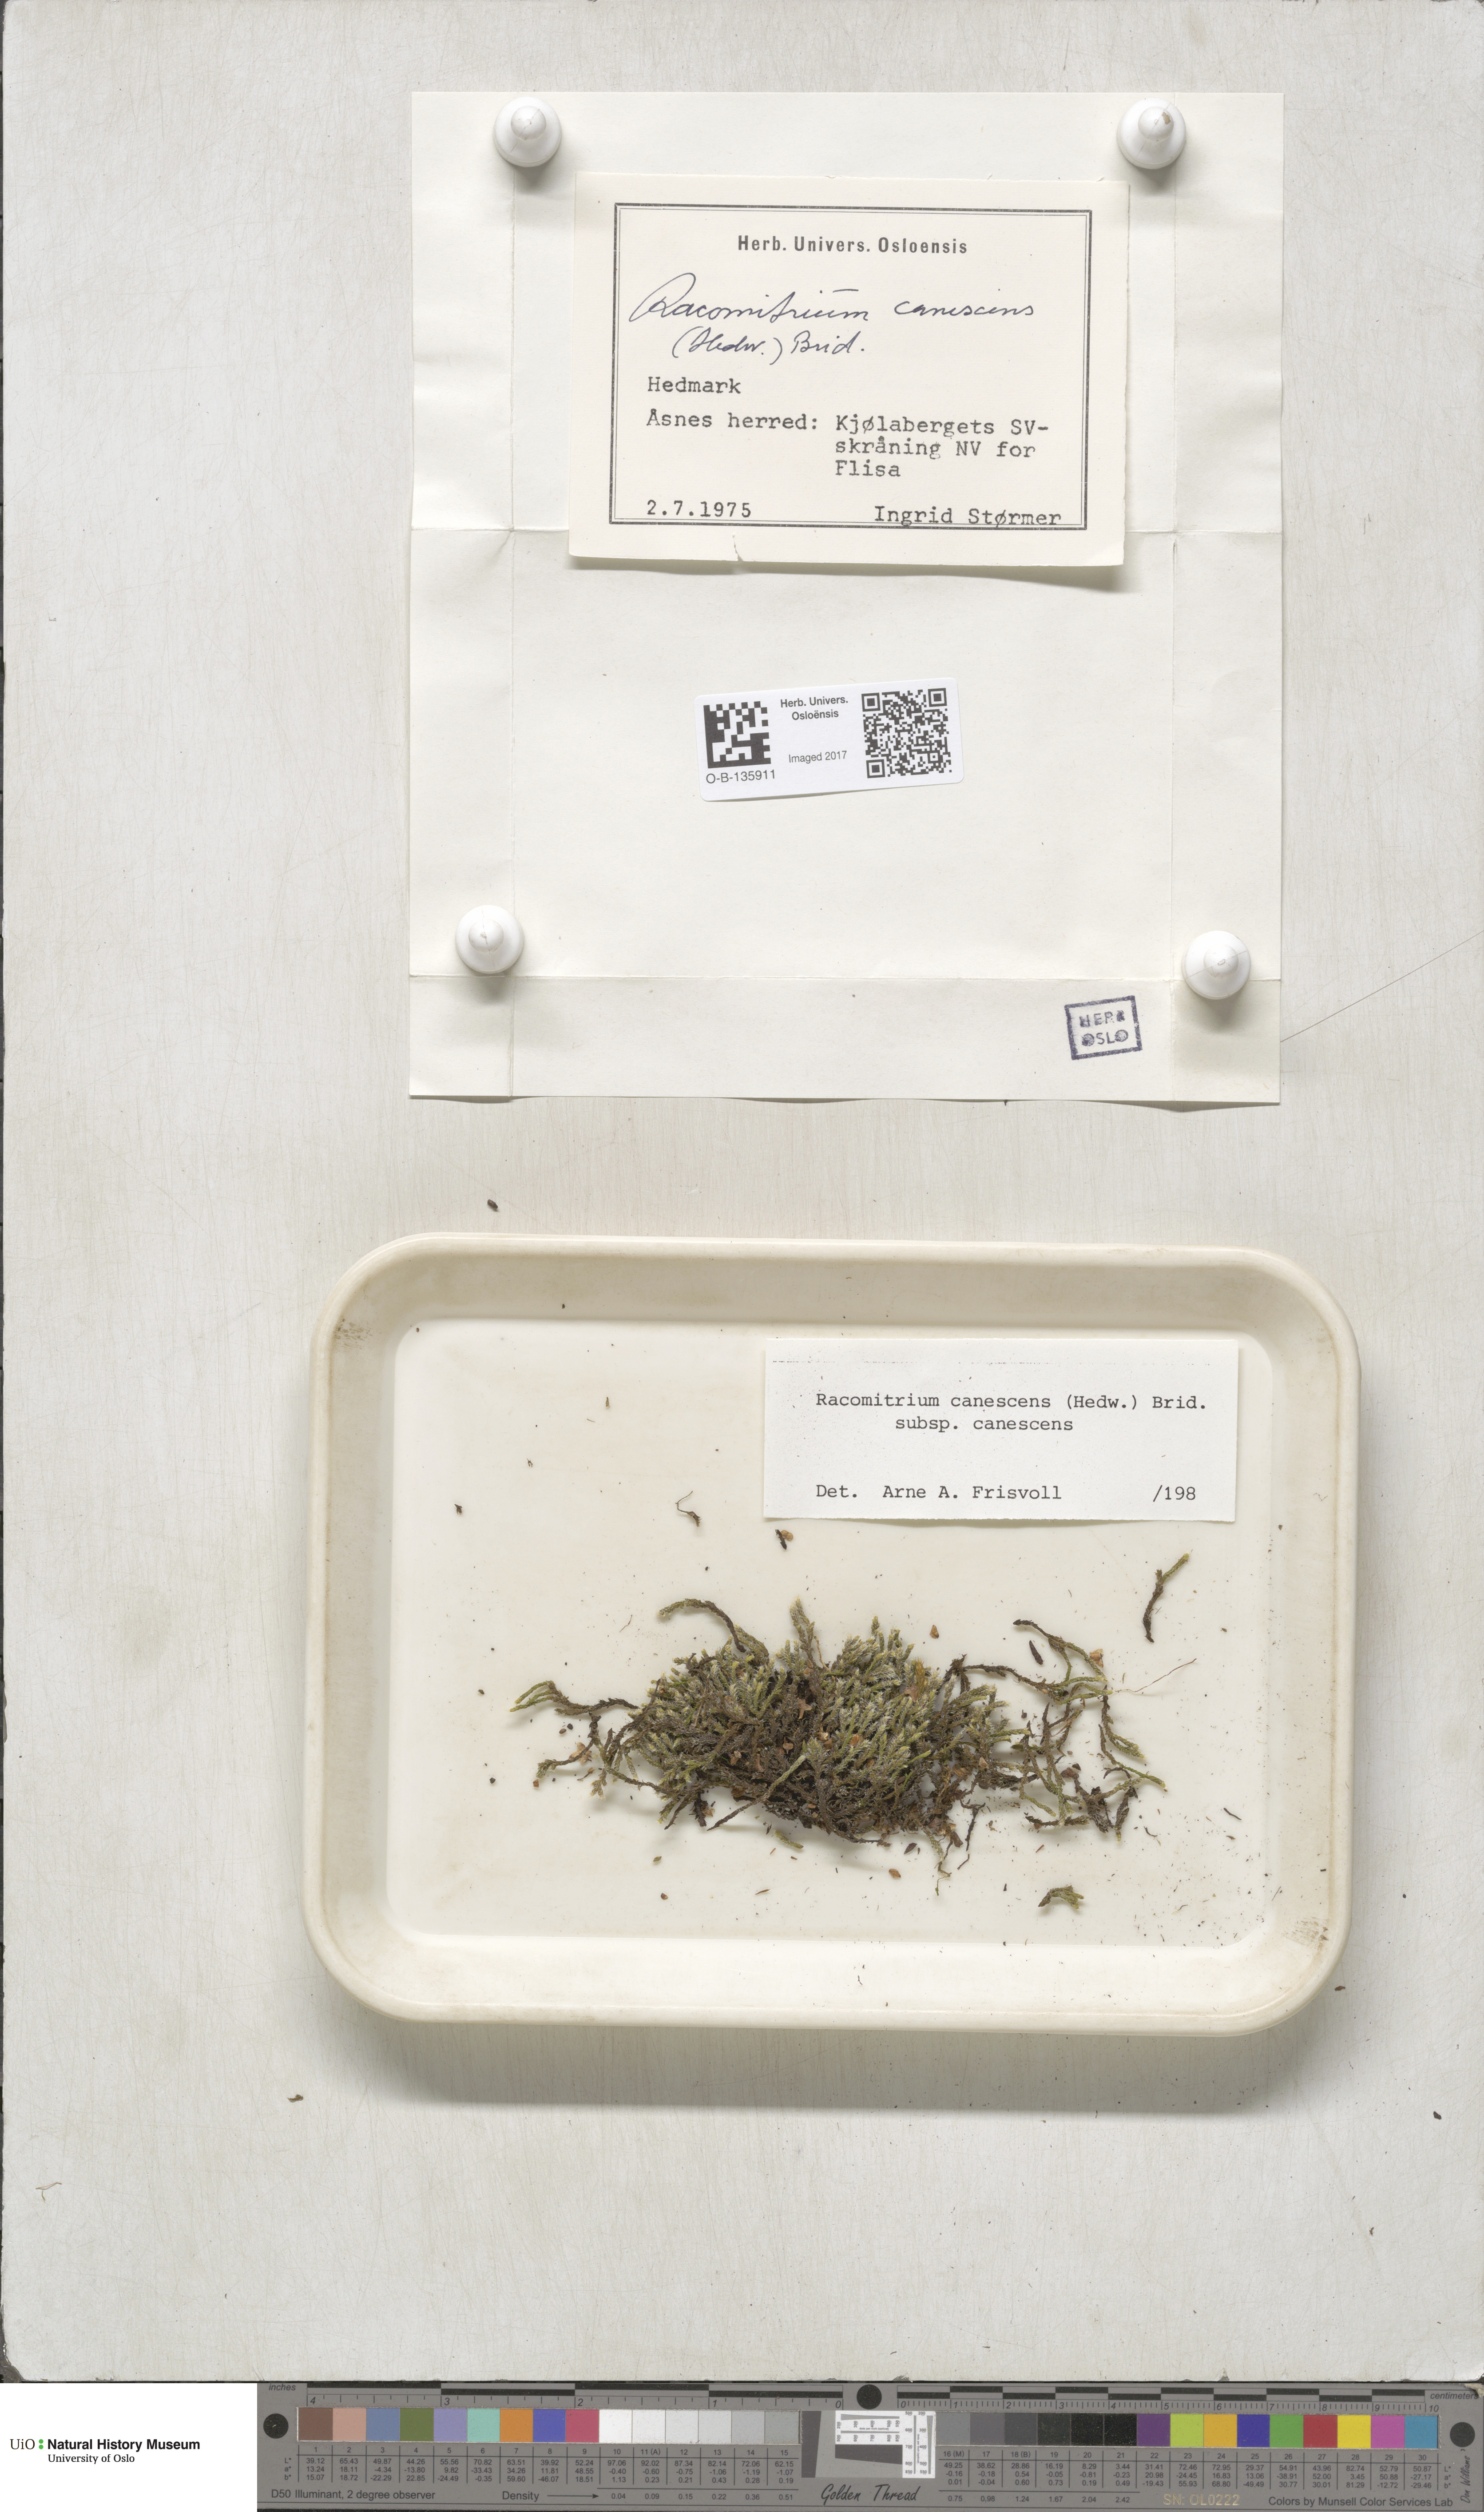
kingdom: Plantae
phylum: Bryophyta
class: Bryopsida
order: Grimmiales
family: Grimmiaceae
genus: Niphotrichum
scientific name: Niphotrichum canescens
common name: Hoary fringe-moss
